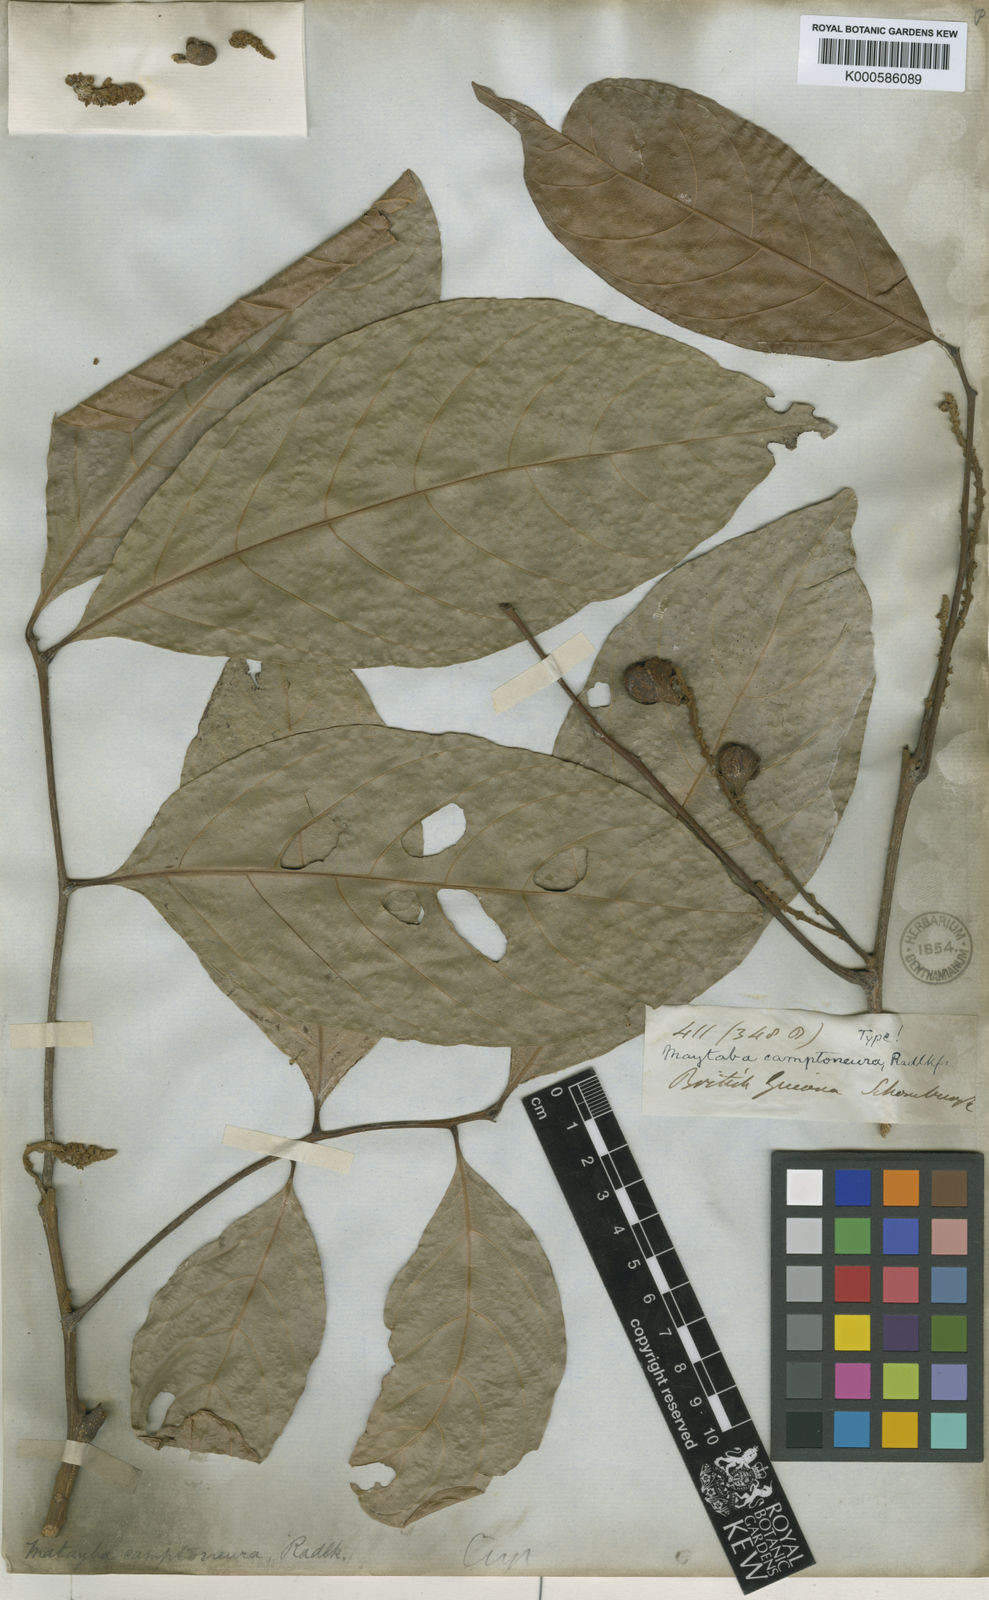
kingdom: Plantae
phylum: Tracheophyta
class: Magnoliopsida
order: Sapindales
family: Sapindaceae
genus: Matayba
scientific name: Matayba camptoneura
